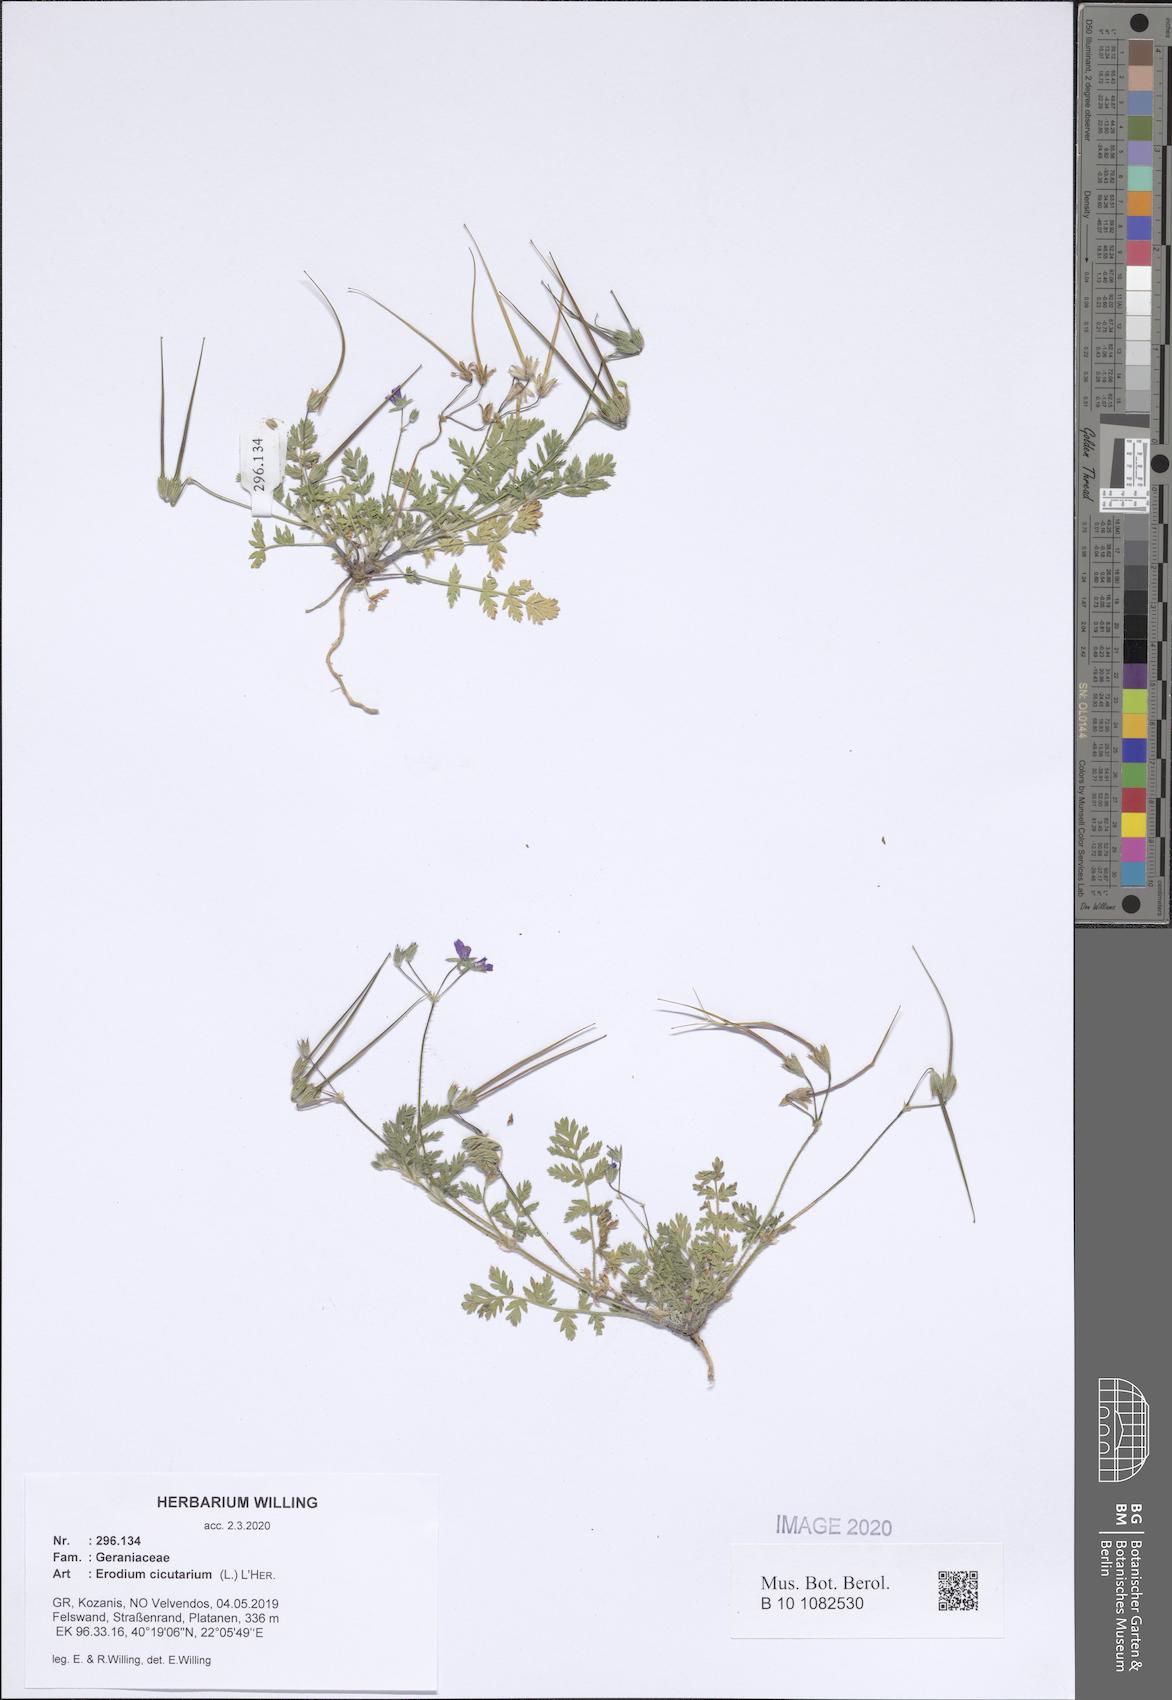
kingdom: Plantae
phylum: Tracheophyta
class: Magnoliopsida
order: Geraniales
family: Geraniaceae
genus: Erodium
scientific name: Erodium cicutarium
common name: Common stork's-bill
